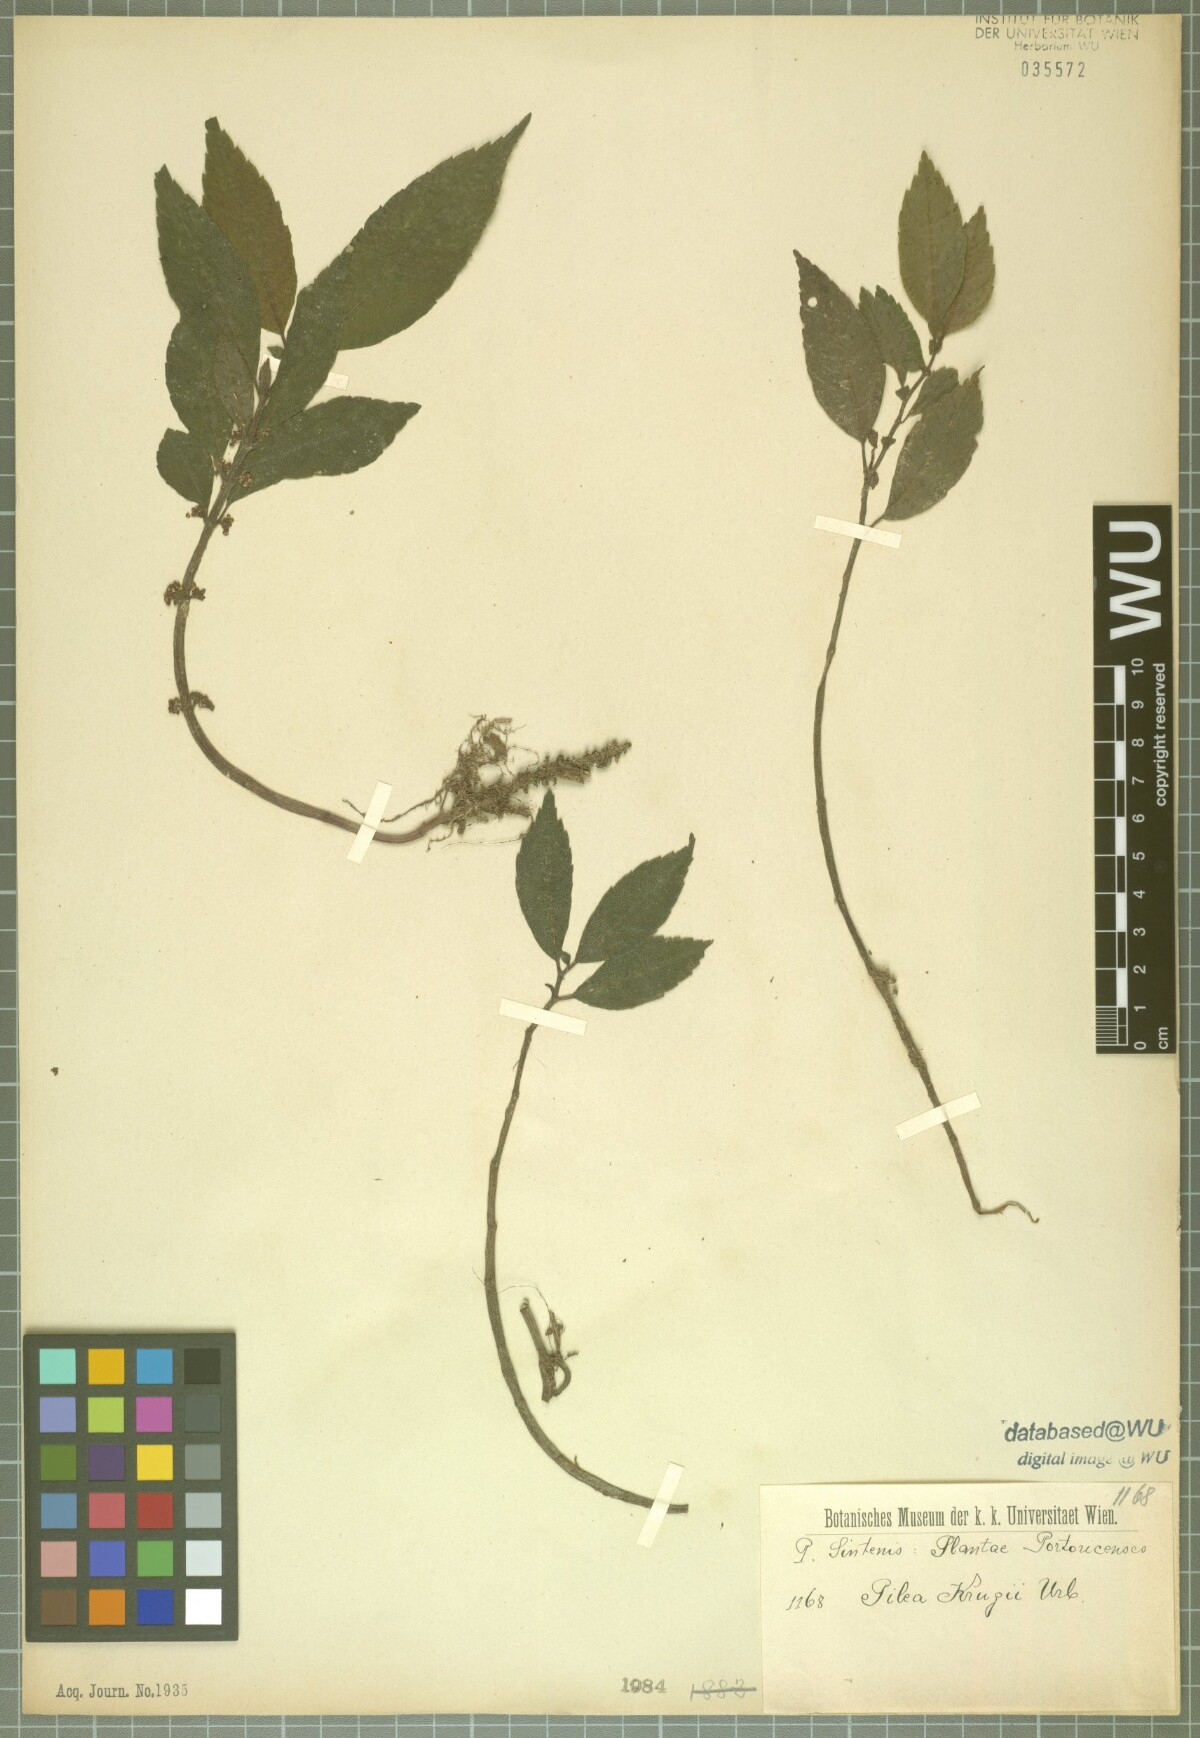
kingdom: Plantae
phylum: Tracheophyta
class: Magnoliopsida
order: Rosales
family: Urticaceae
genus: Pilea
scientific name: Pilea krugii
